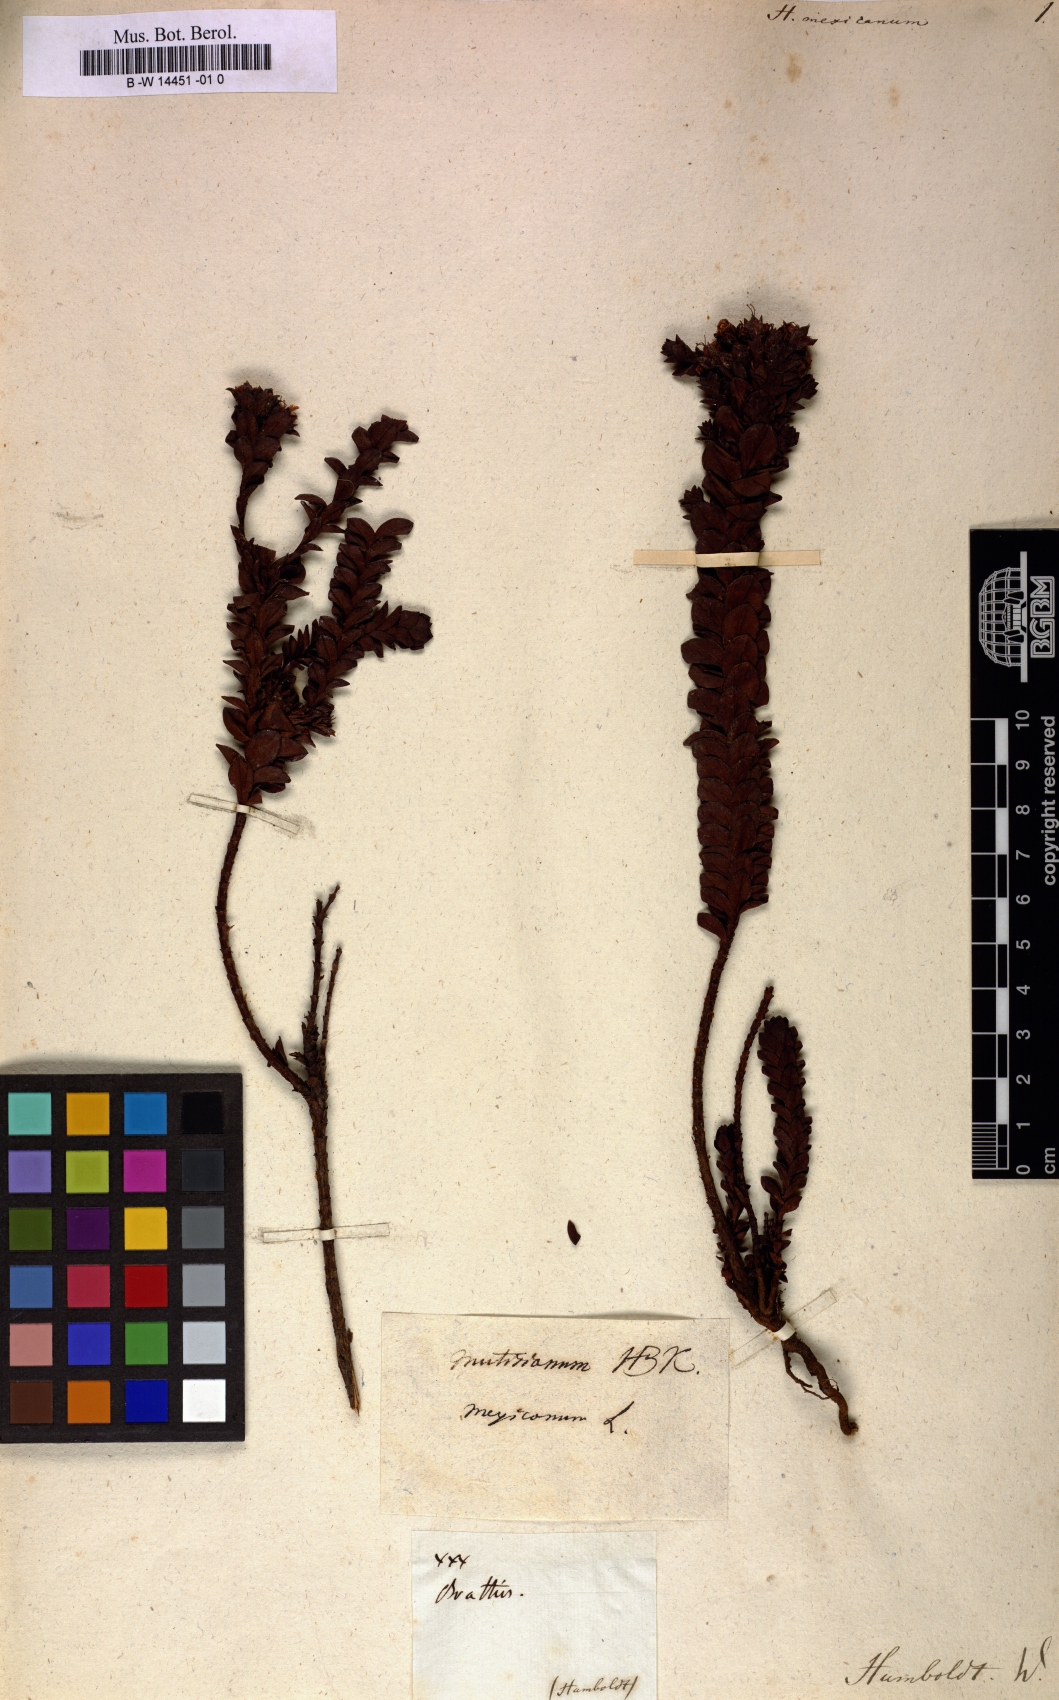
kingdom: Plantae
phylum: Tracheophyta
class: Magnoliopsida
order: Malpighiales
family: Hypericaceae
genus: Hypericum
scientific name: Hypericum mexicanum
